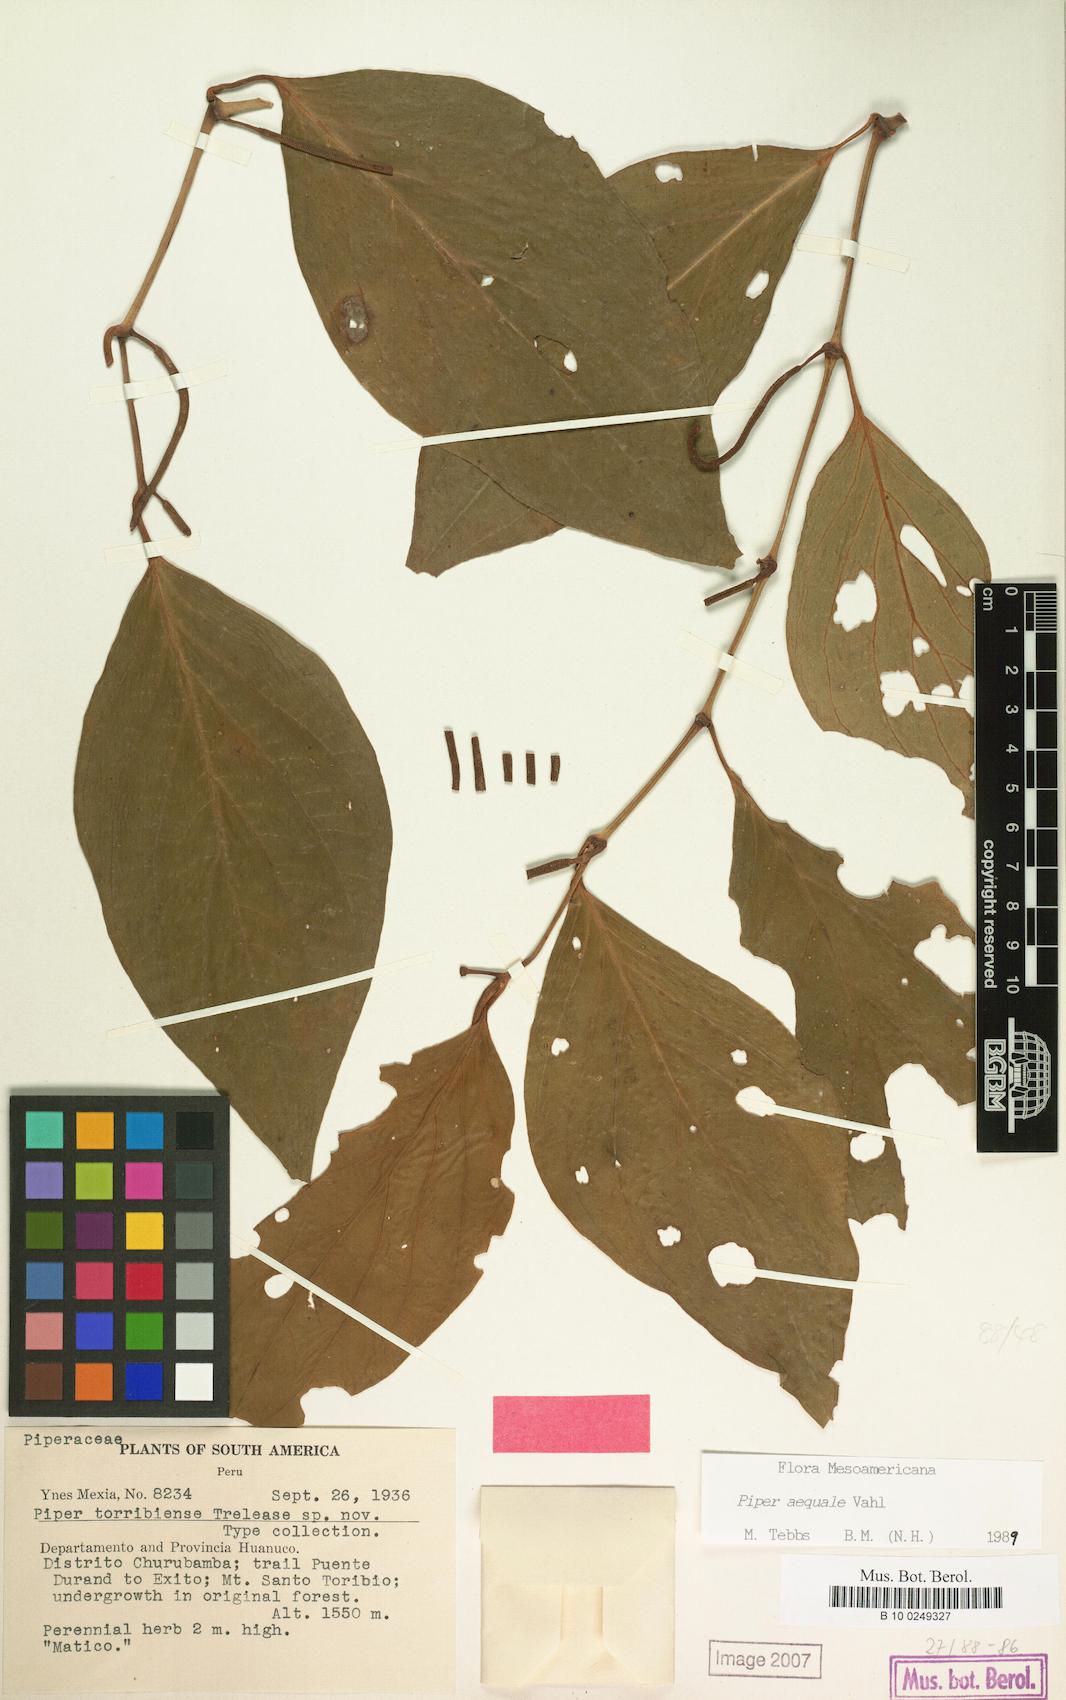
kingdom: Plantae
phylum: Tracheophyta
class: Magnoliopsida
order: Piperales
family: Piperaceae
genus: Piper
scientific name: Piper aequale
